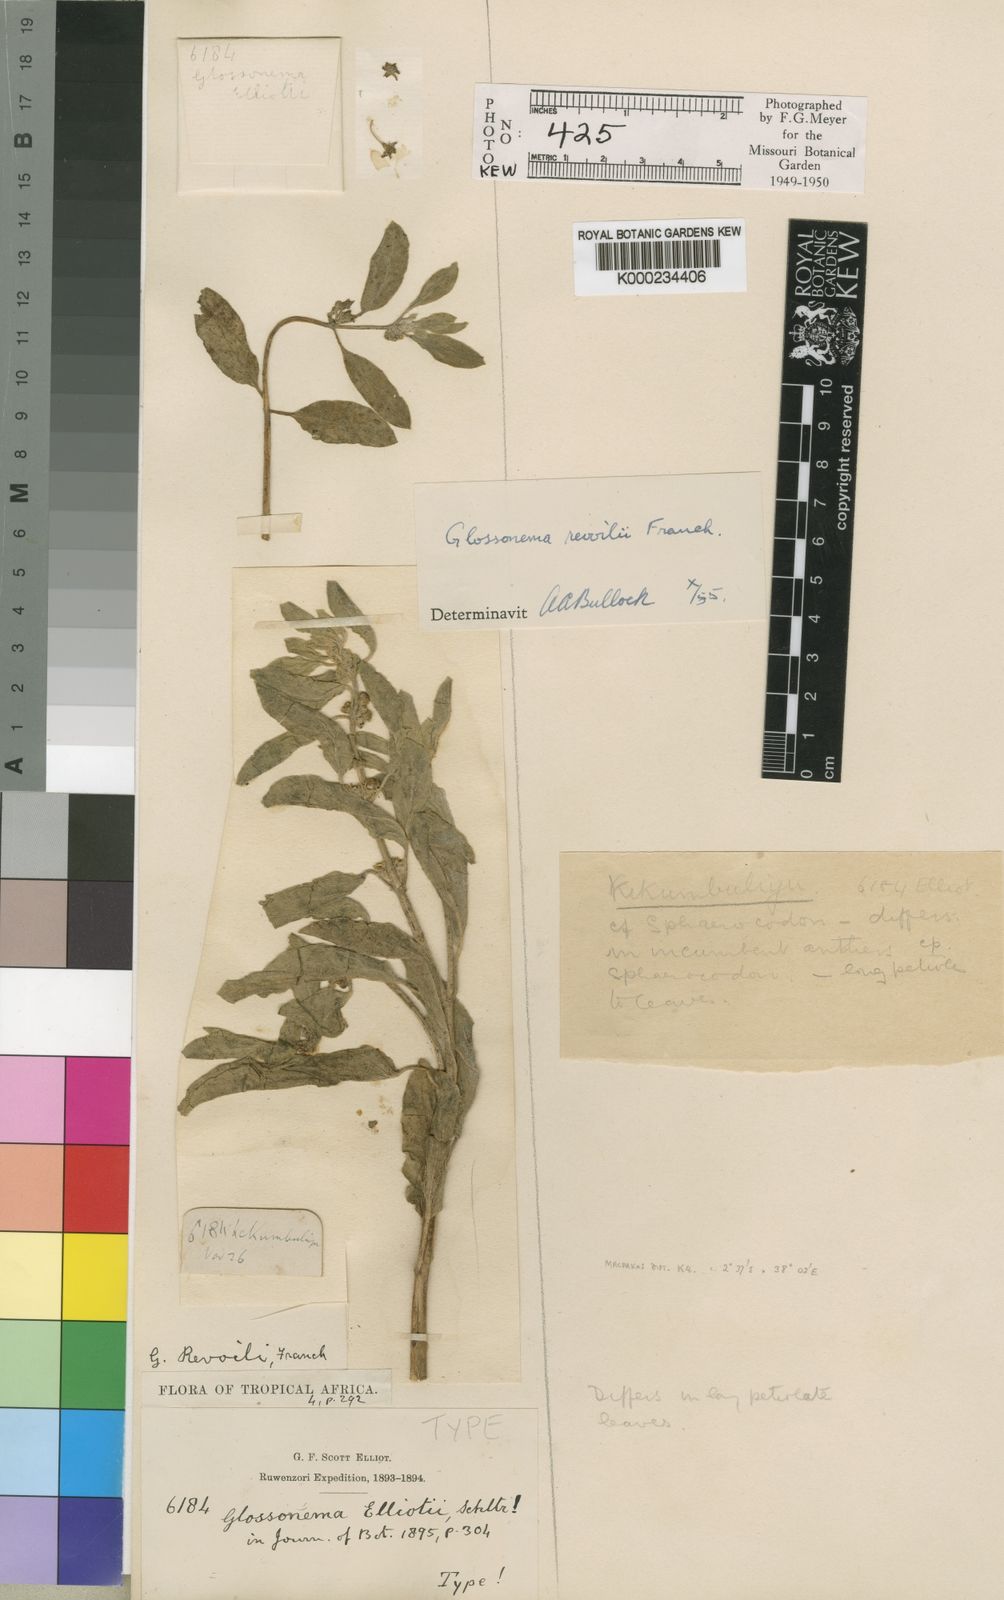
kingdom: Plantae
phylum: Tracheophyta
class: Magnoliopsida
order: Gentianales
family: Apocynaceae
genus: Cynanchum
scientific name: Cynanchum revoilii
